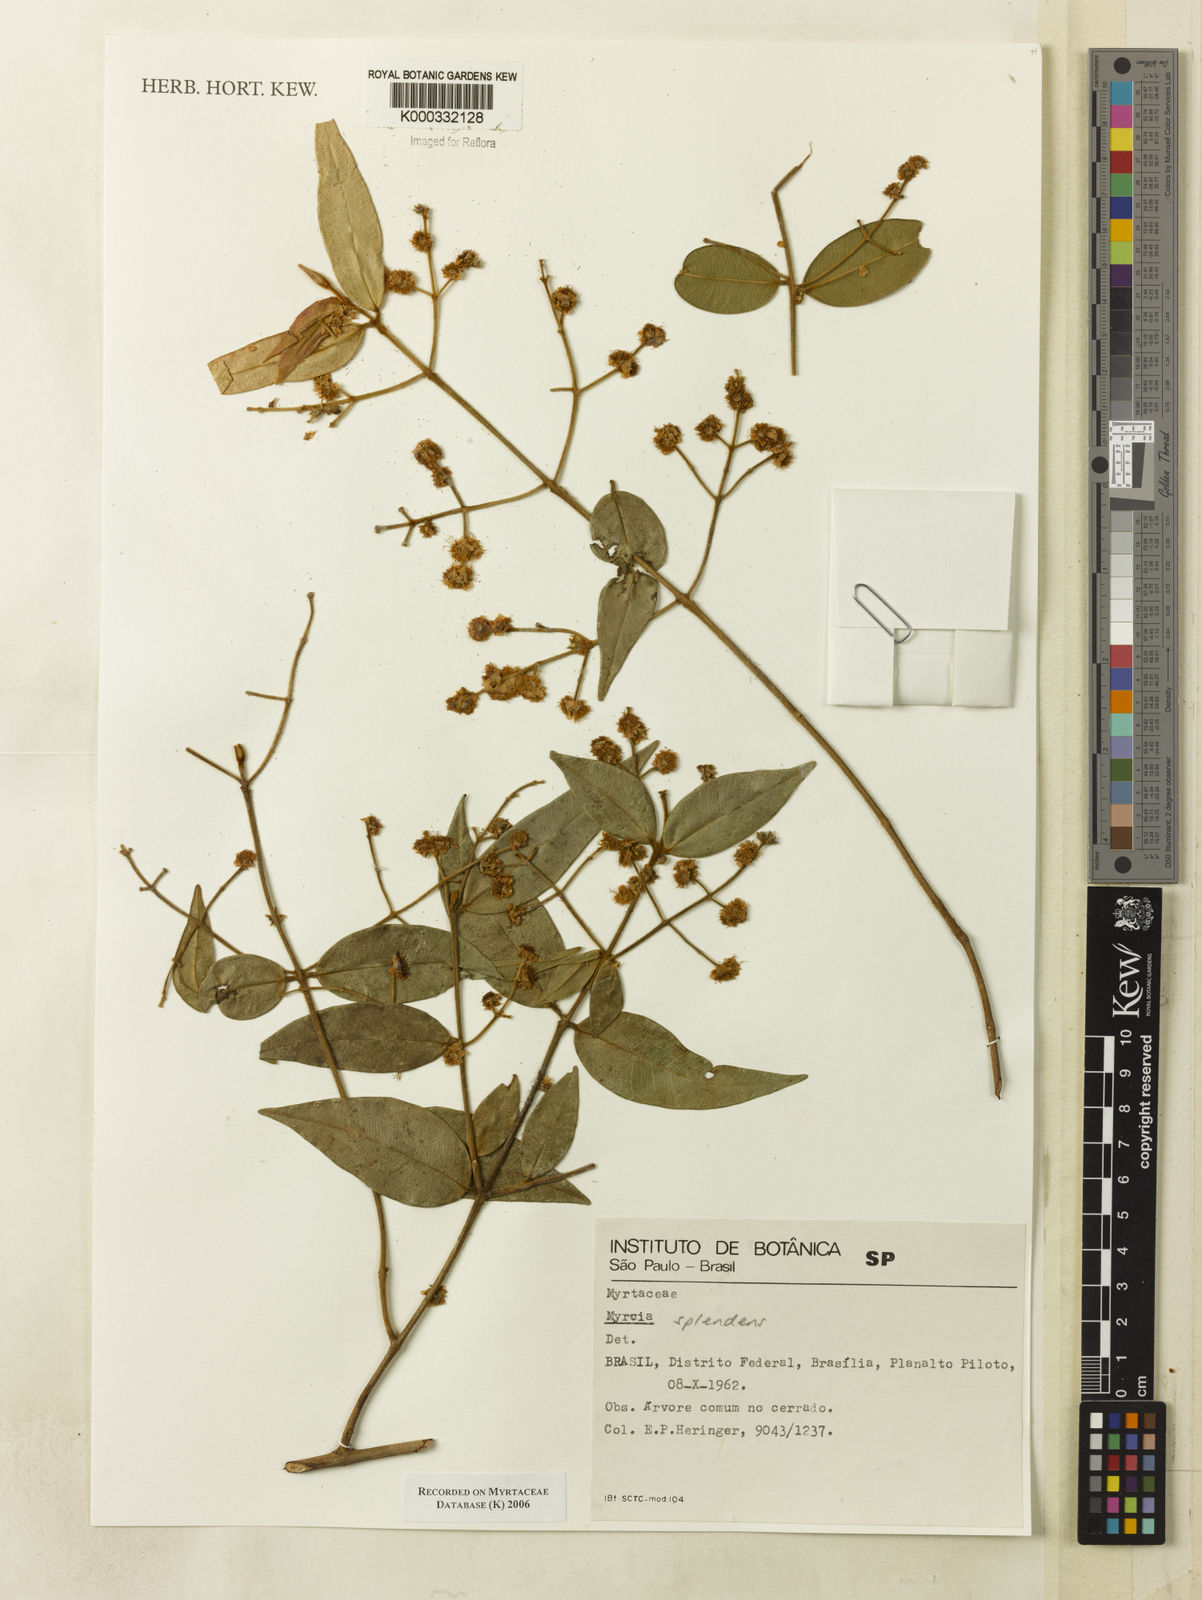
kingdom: Plantae
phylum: Tracheophyta
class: Magnoliopsida
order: Myrtales
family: Myrtaceae
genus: Myrcia
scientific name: Myrcia
